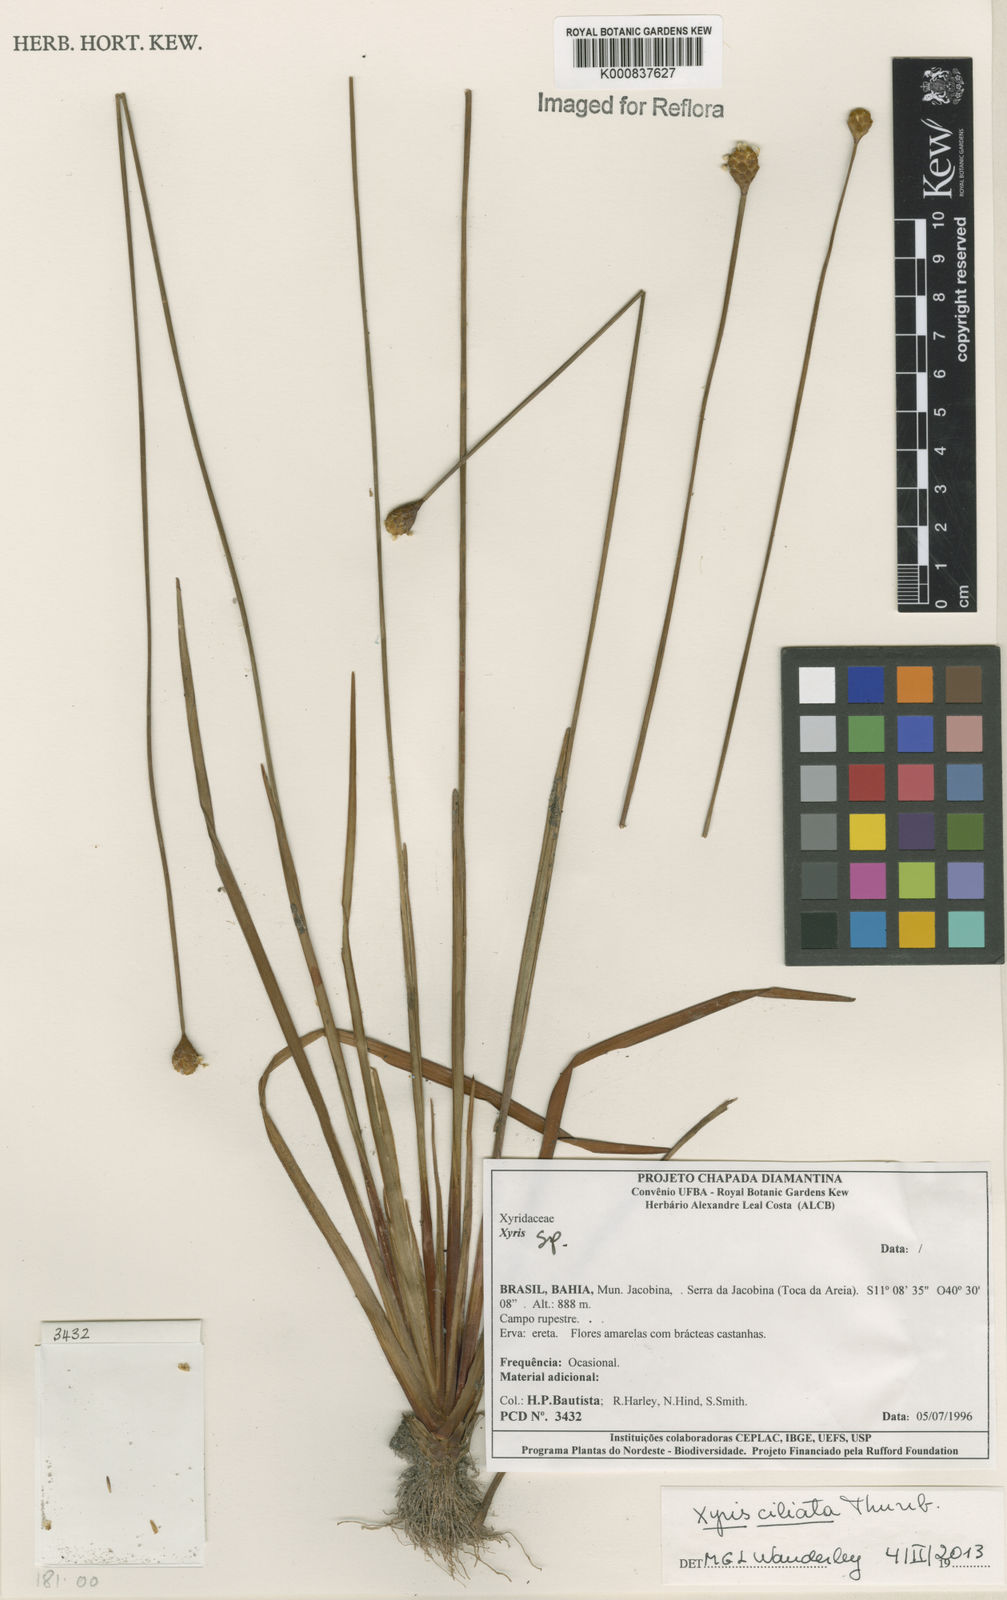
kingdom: Plantae
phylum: Tracheophyta
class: Liliopsida
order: Poales
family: Xyridaceae
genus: Xyris
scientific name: Xyris ciliata
